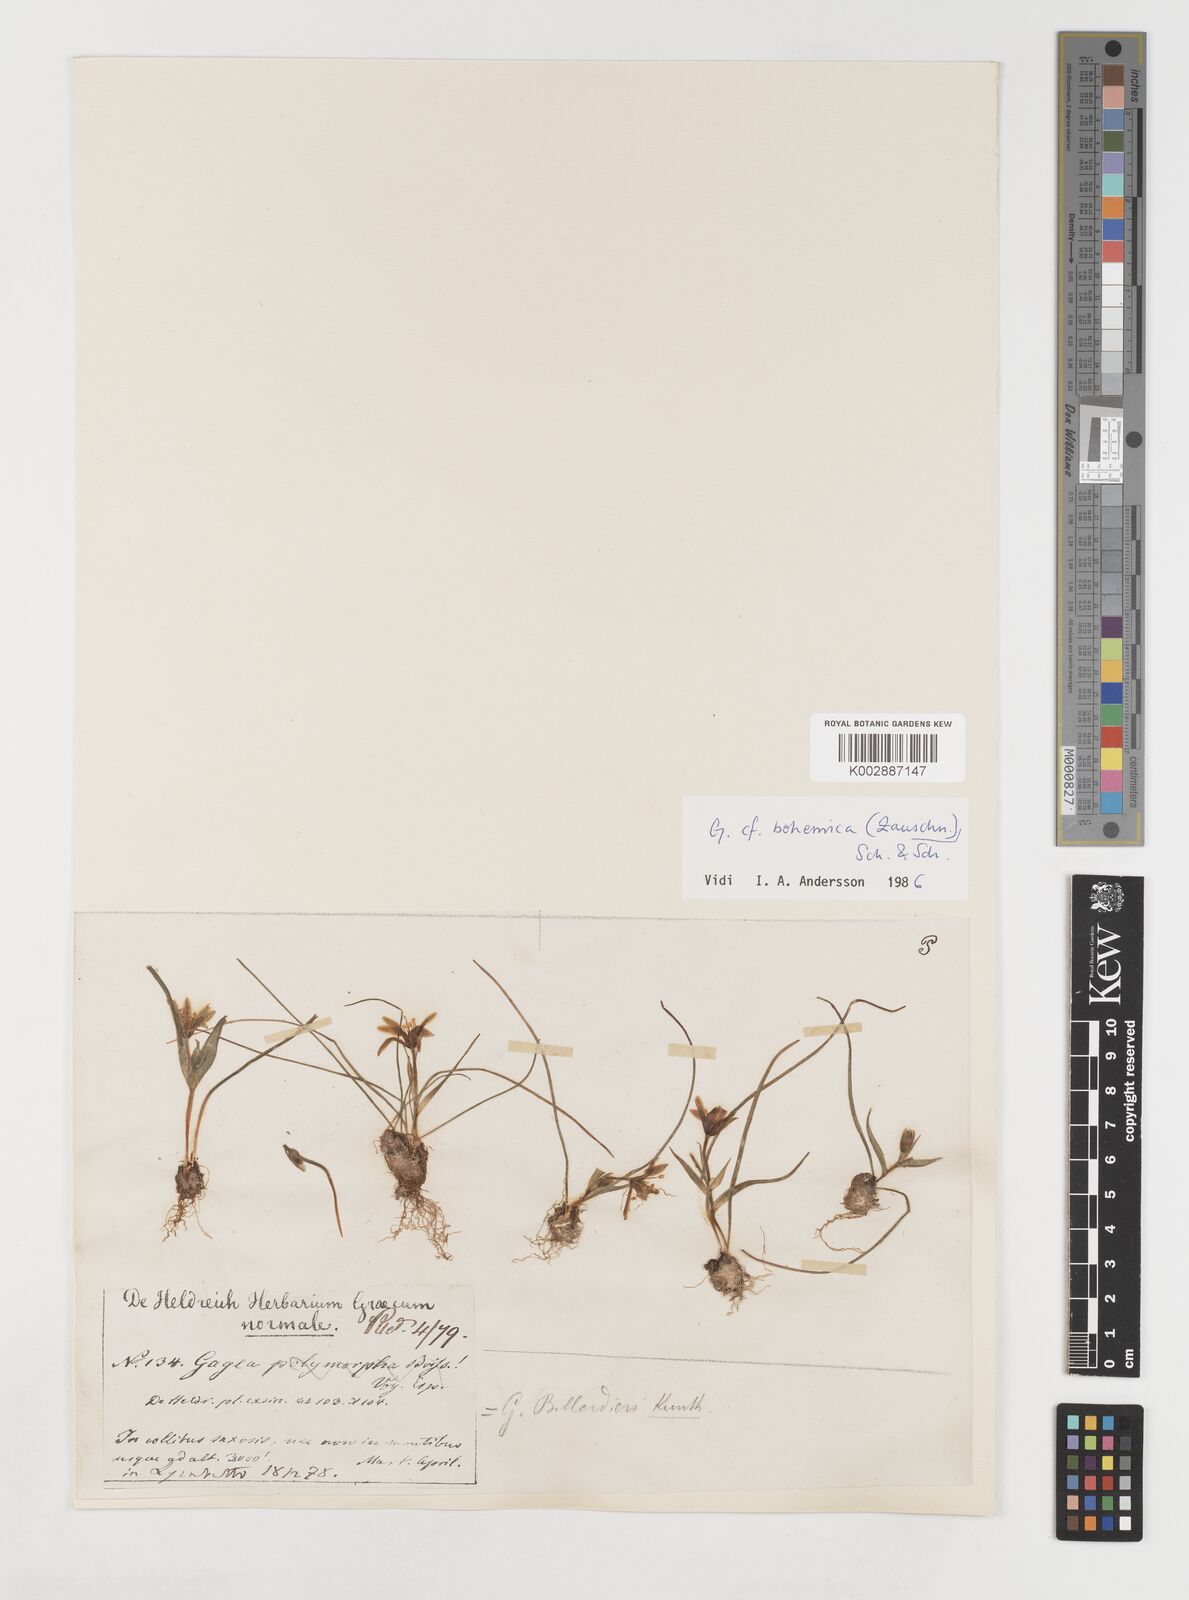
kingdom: Plantae
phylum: Tracheophyta
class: Liliopsida
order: Liliales
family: Liliaceae
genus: Gagea
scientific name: Gagea peduncularis
